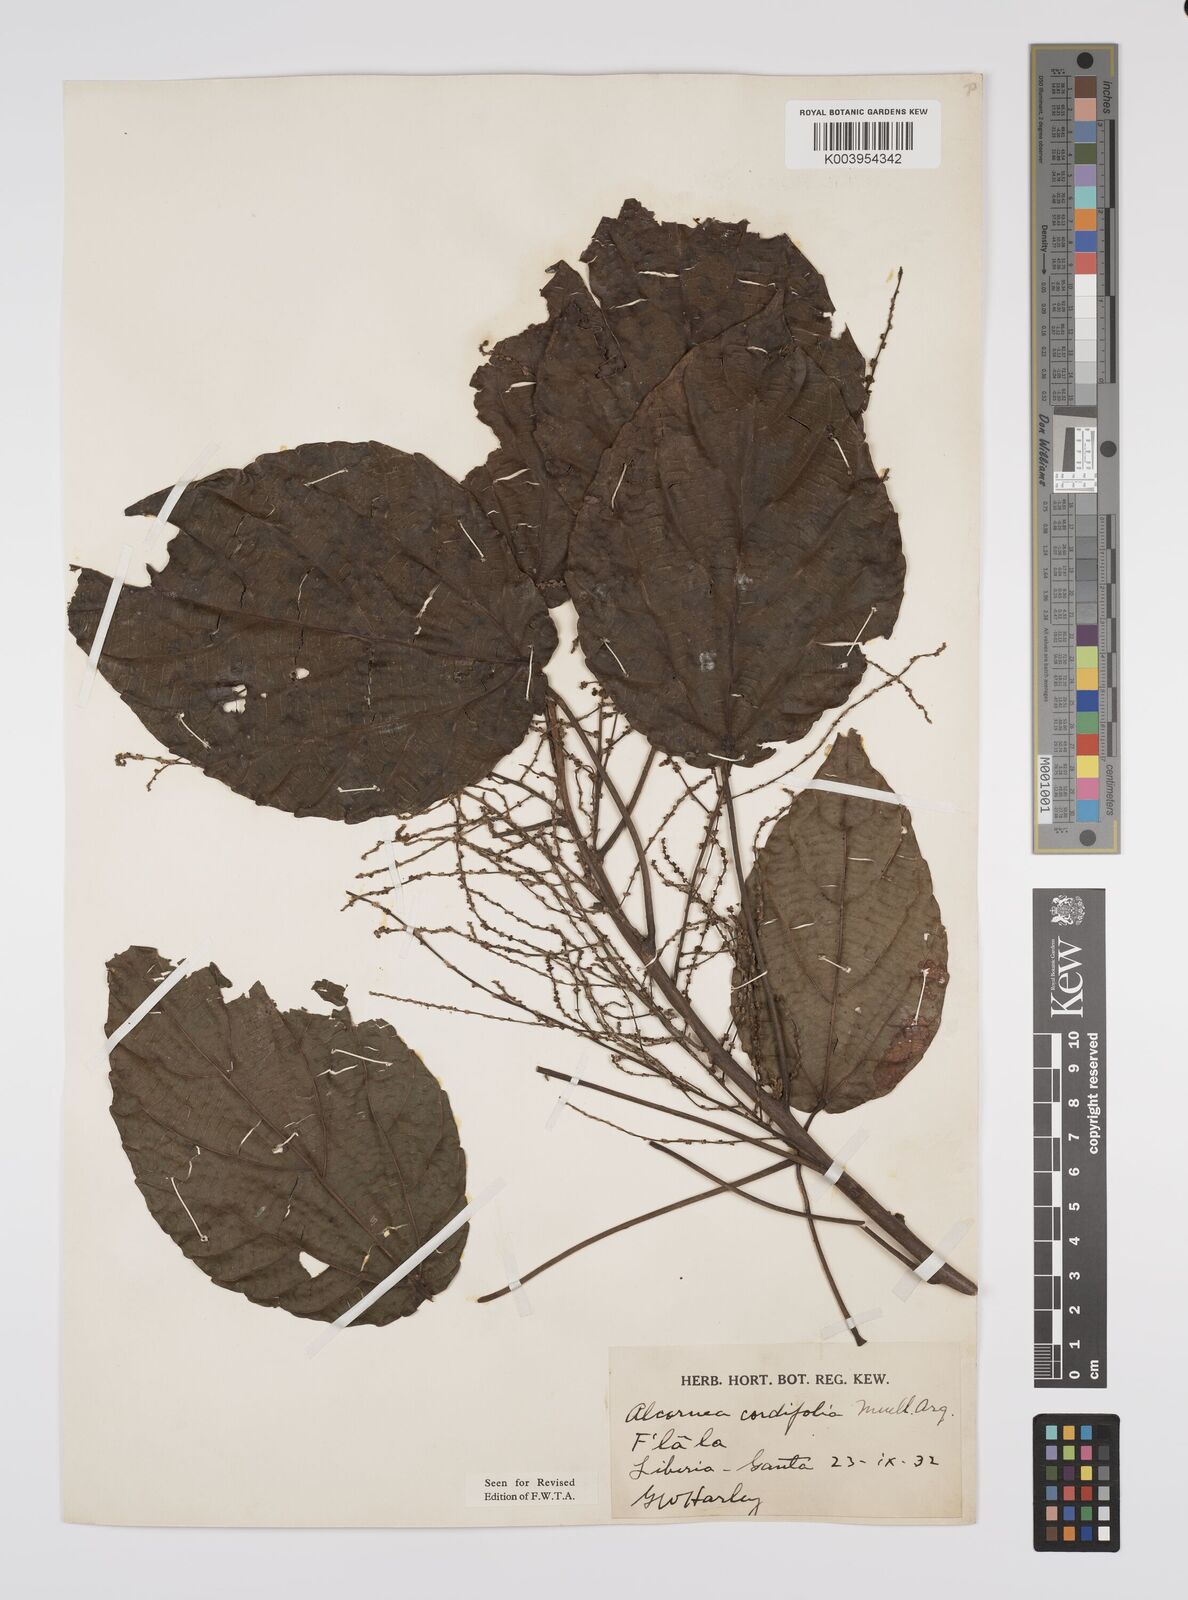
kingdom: Plantae
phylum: Tracheophyta
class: Magnoliopsida
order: Malpighiales
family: Euphorbiaceae
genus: Alchornea
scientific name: Alchornea cordifolia
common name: Christmasbush
